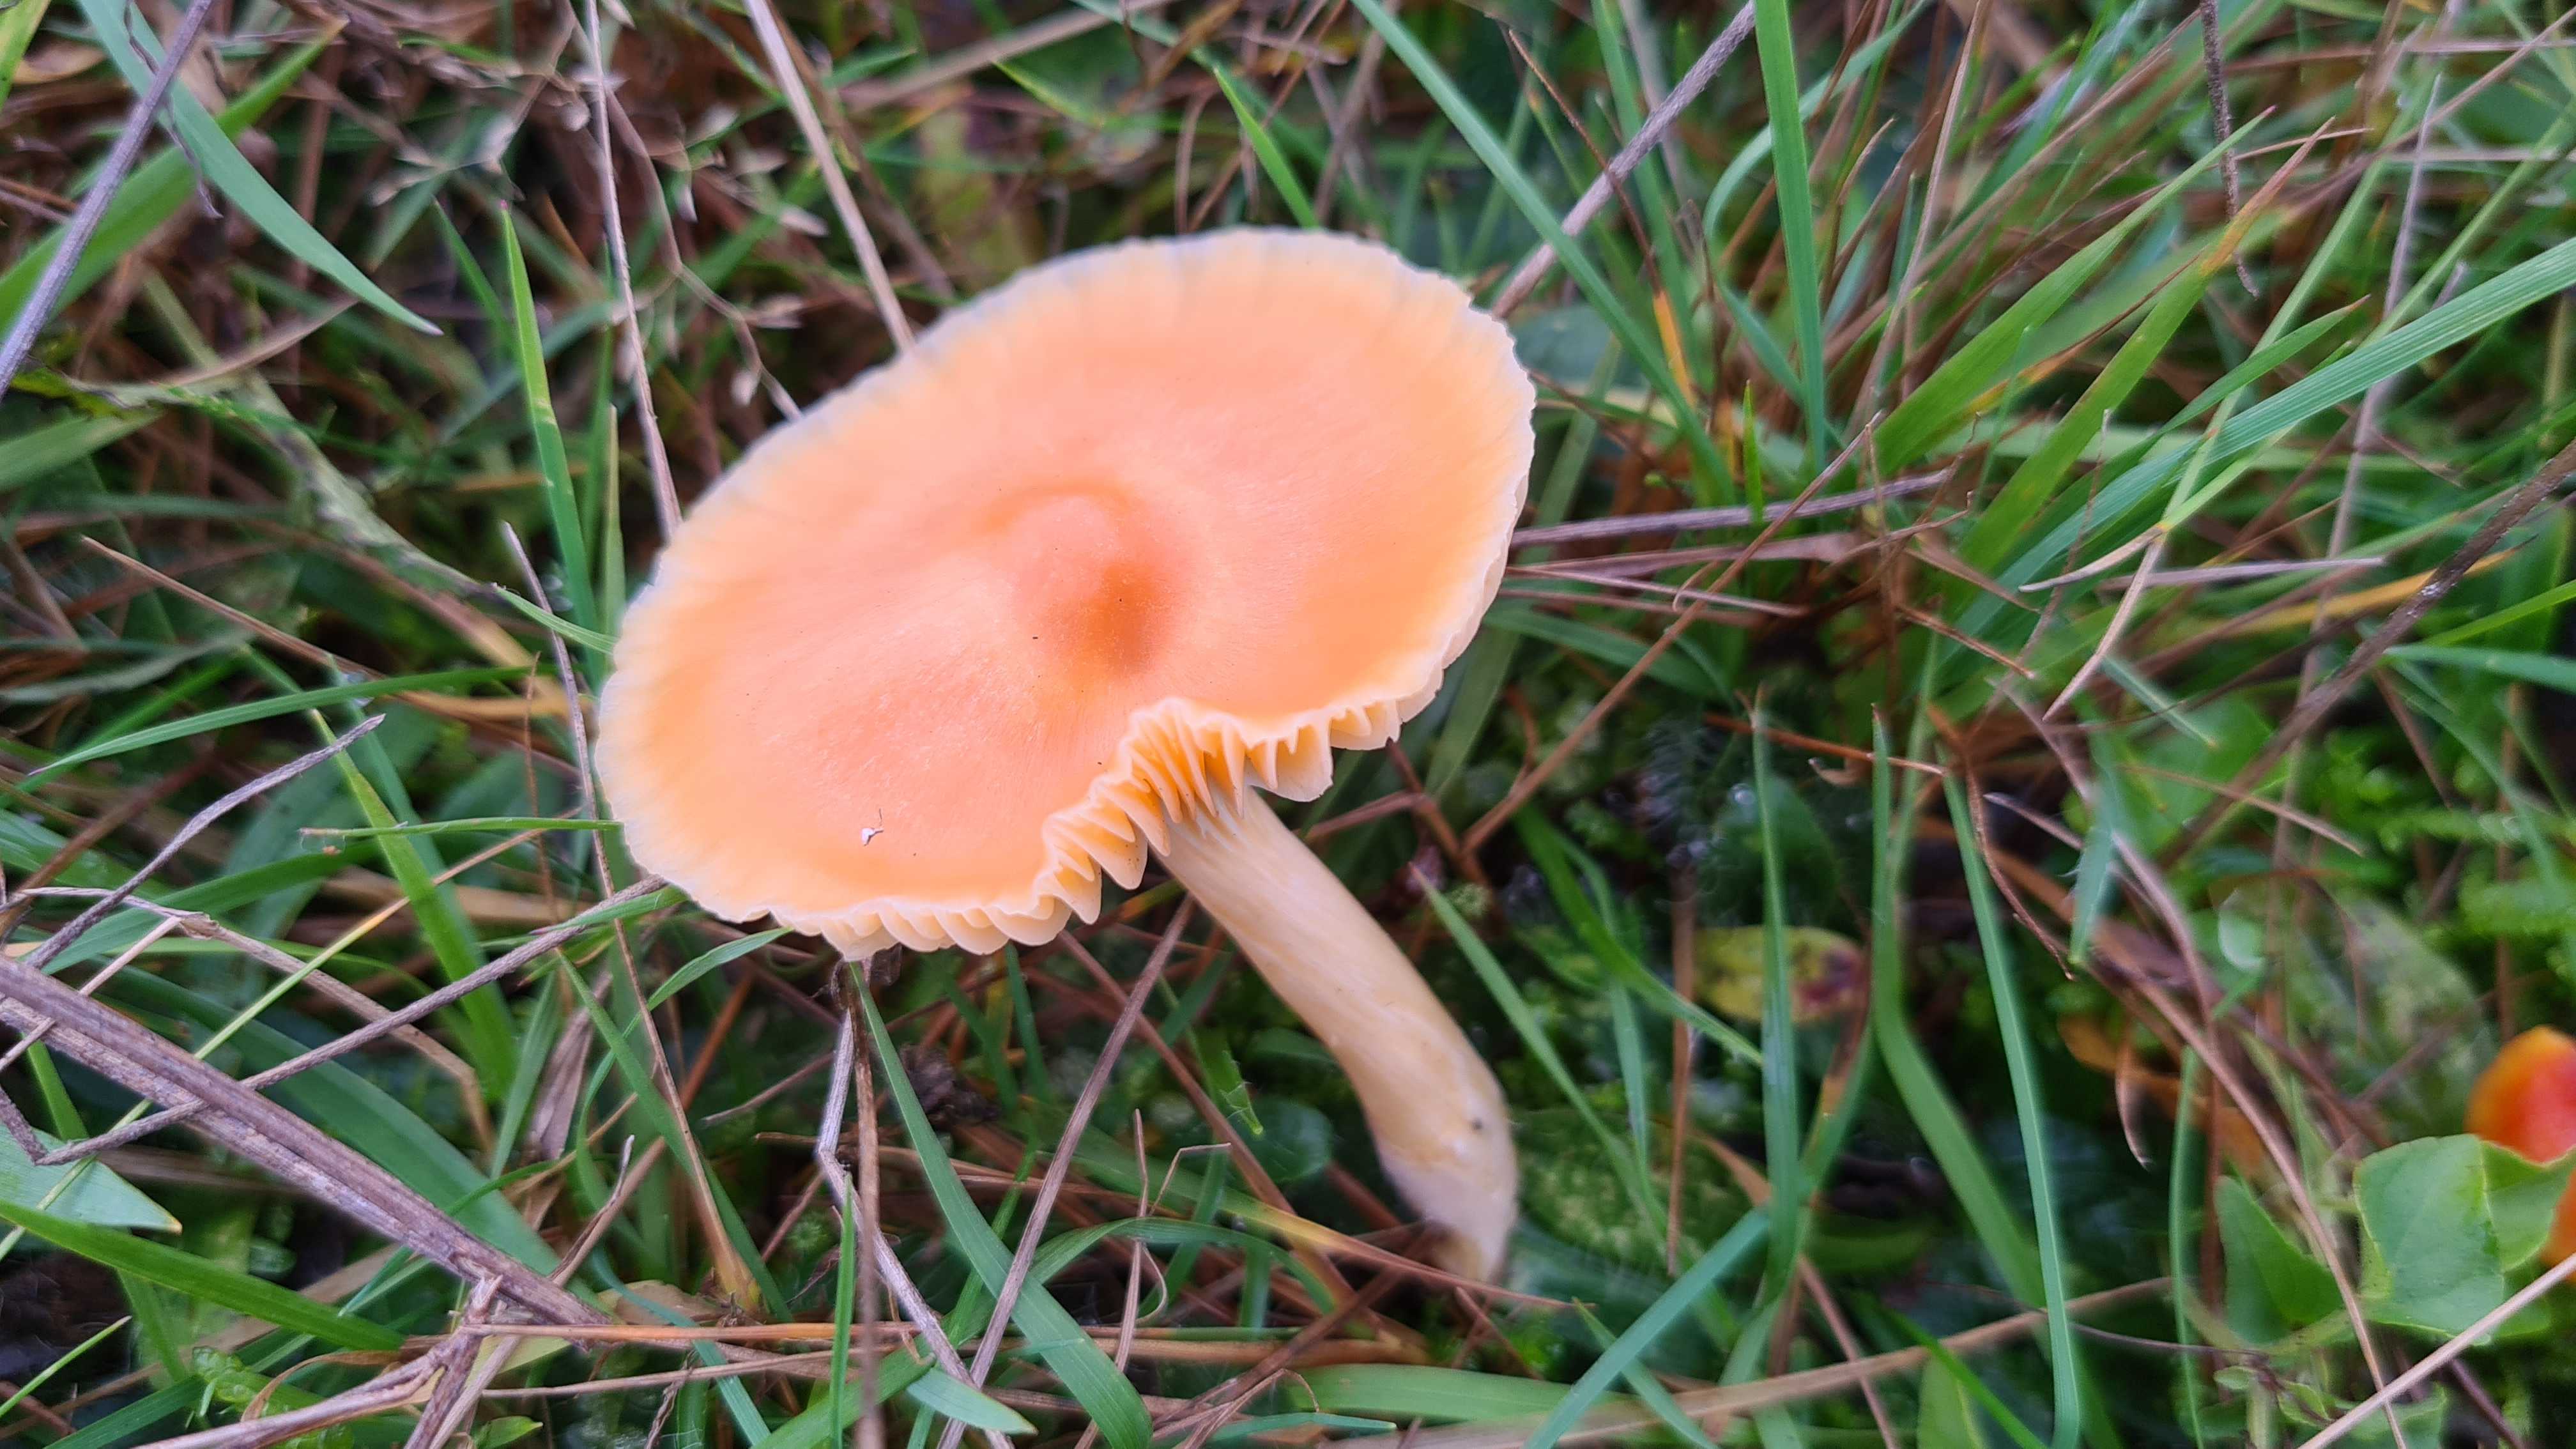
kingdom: Fungi
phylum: Basidiomycota
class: Agaricomycetes
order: Agaricales
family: Hygrophoraceae
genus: Cuphophyllus
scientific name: Cuphophyllus pratensis
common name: eng-vokshat
